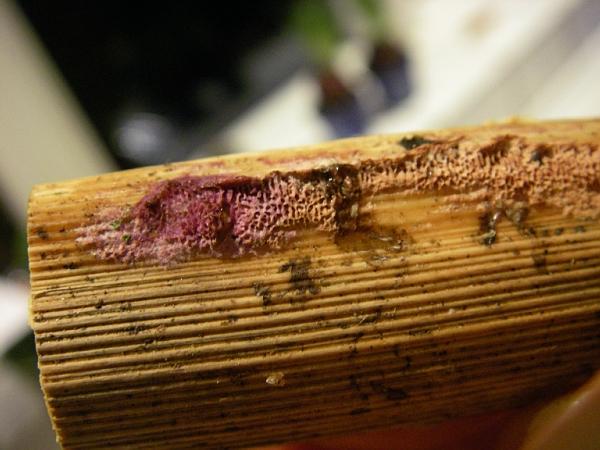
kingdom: Fungi
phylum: Basidiomycota
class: Agaricomycetes
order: Polyporales
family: Phanerochaetaceae
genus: Hapalopilus
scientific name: Hapalopilus eupatorii
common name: urte-okkerporesvamp
